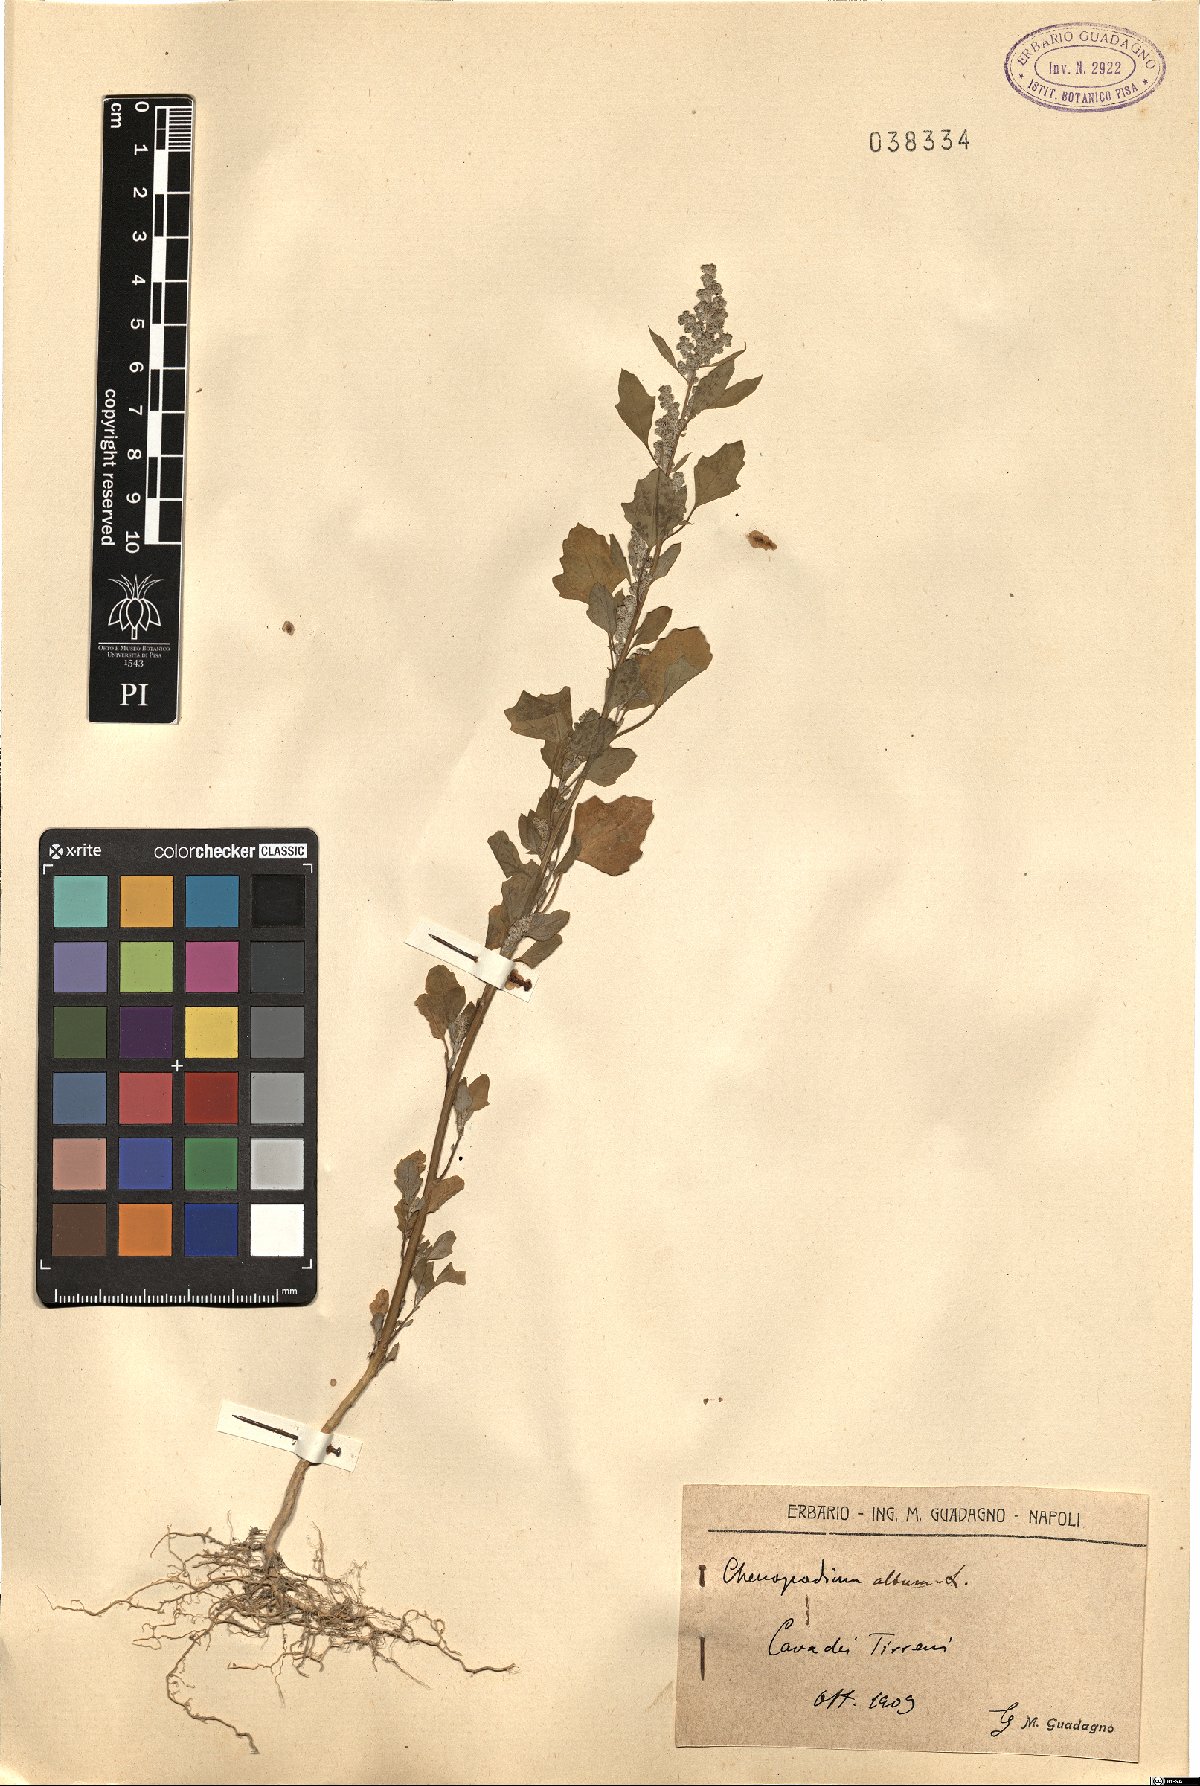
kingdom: Plantae
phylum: Tracheophyta
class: Magnoliopsida
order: Caryophyllales
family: Amaranthaceae
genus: Chenopodium
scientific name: Chenopodium album
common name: Fat-hen
